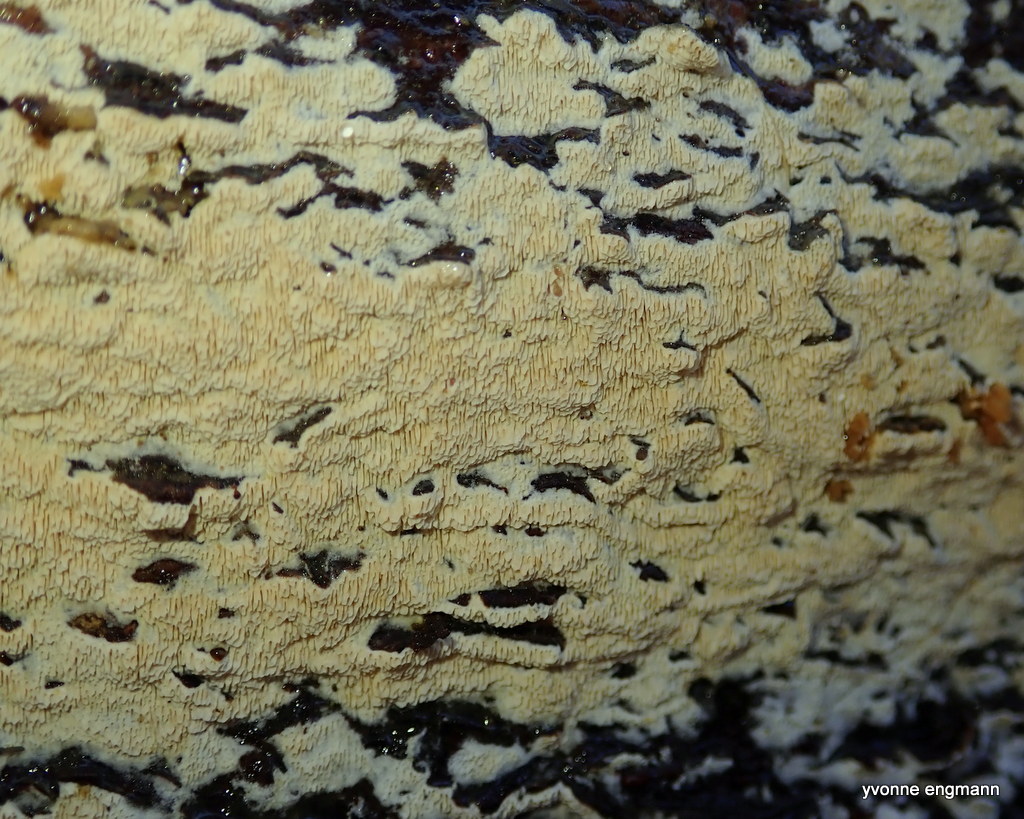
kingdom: Fungi
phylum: Basidiomycota
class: Agaricomycetes
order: Hymenochaetales
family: Schizoporaceae
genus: Schizopora
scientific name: Schizopora paradoxa
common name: hvid tandsvamp
